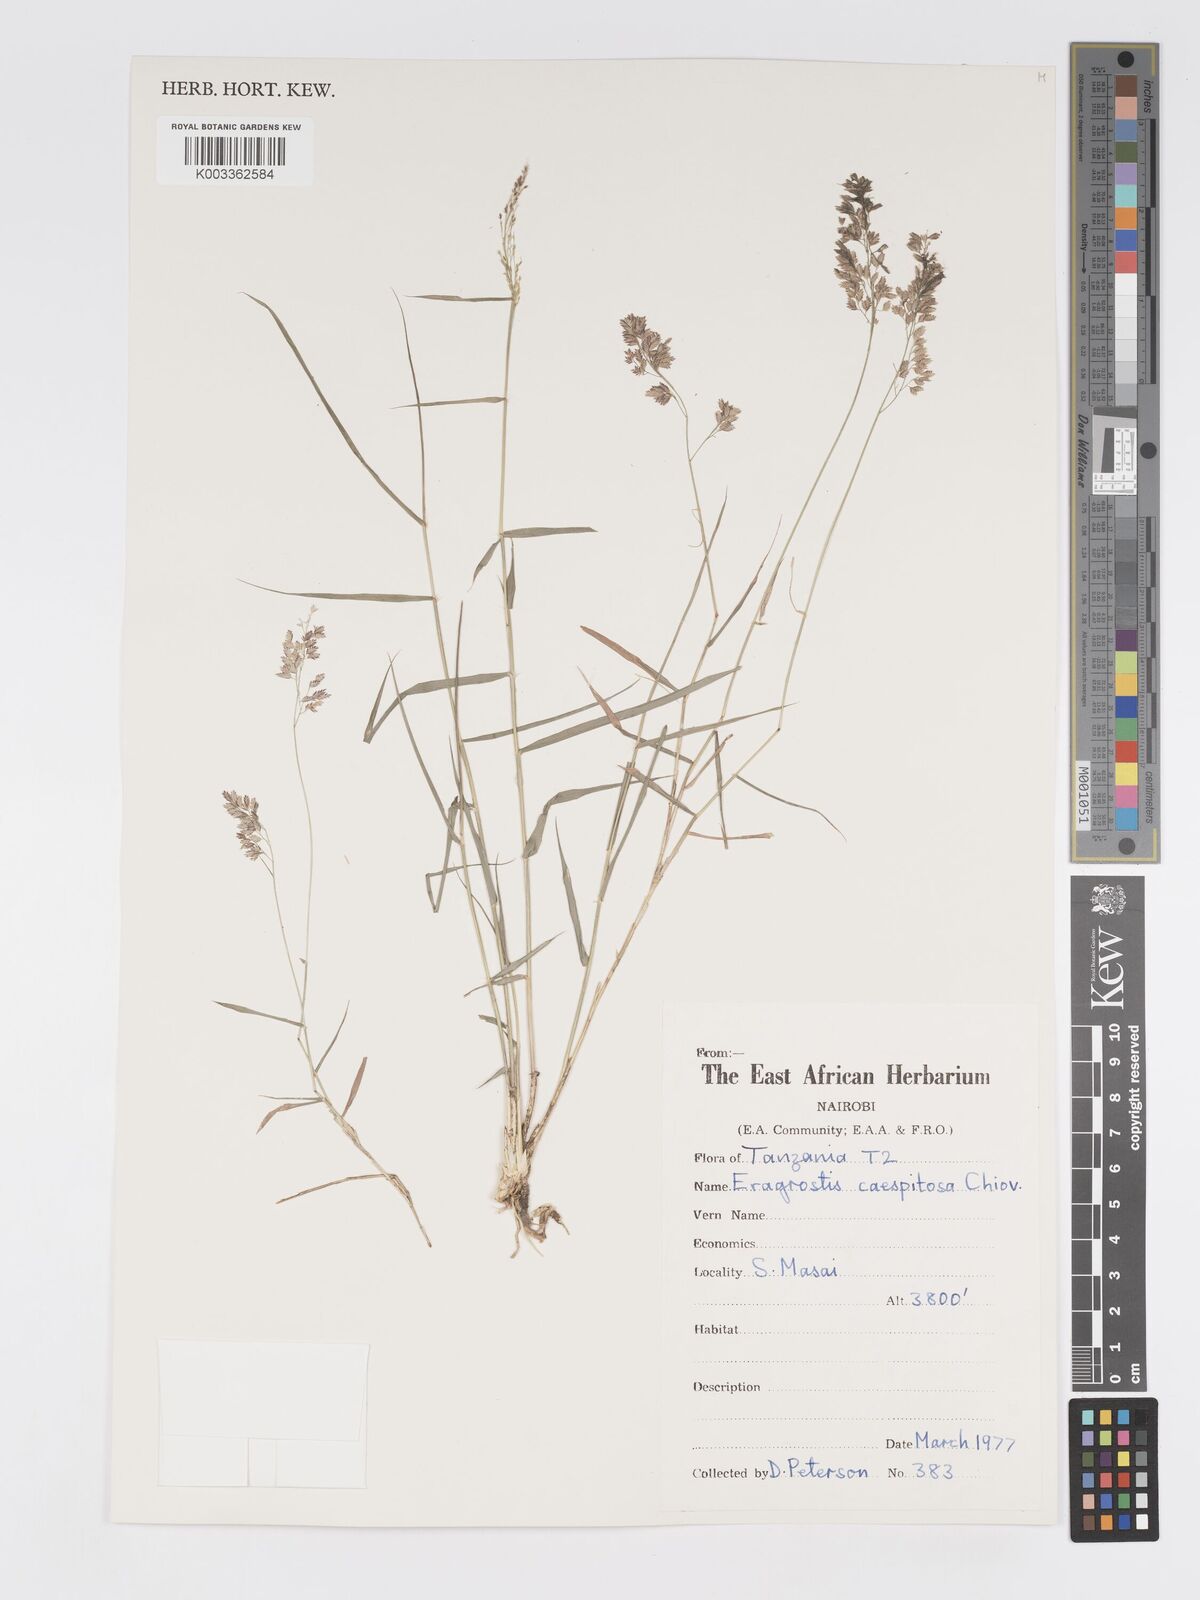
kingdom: Plantae
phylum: Tracheophyta
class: Liliopsida
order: Poales
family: Poaceae
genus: Eragrostis
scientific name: Eragrostis caespitosa
